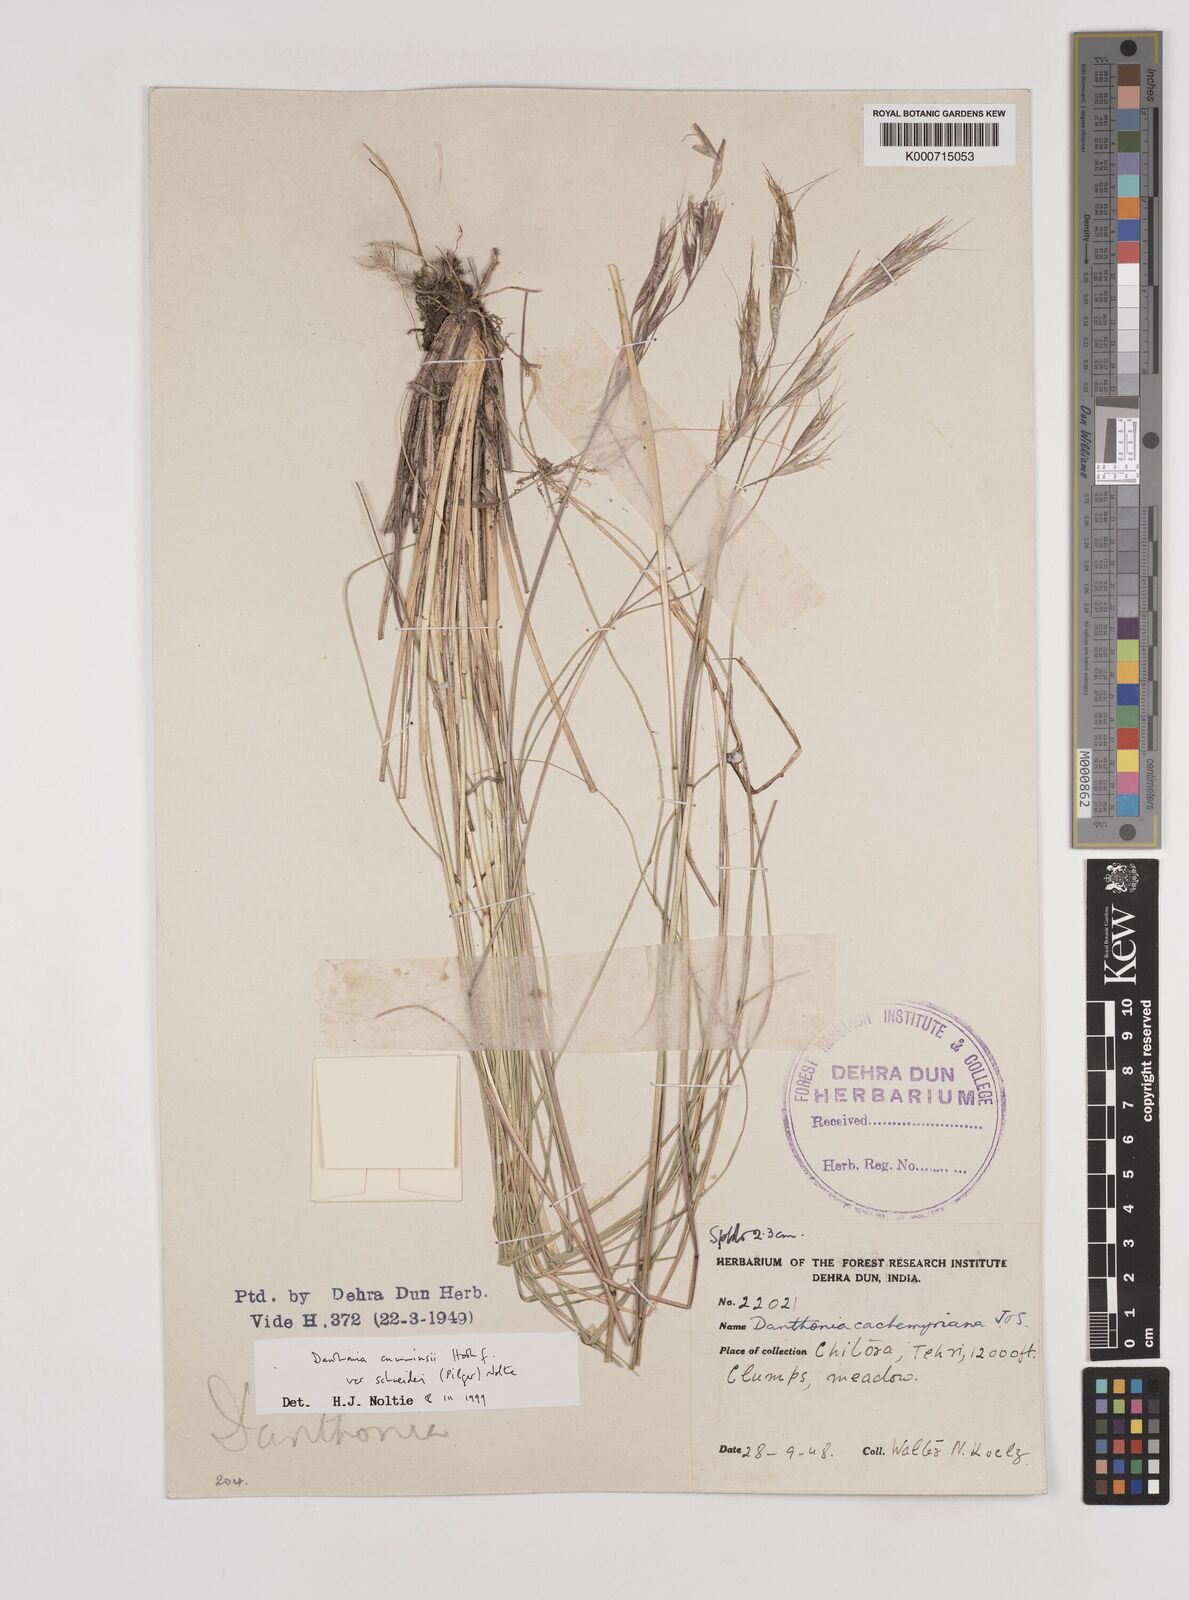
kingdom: Plantae
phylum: Tracheophyta
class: Liliopsida
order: Poales
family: Poaceae
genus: Rytidosperma
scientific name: Rytidosperma
